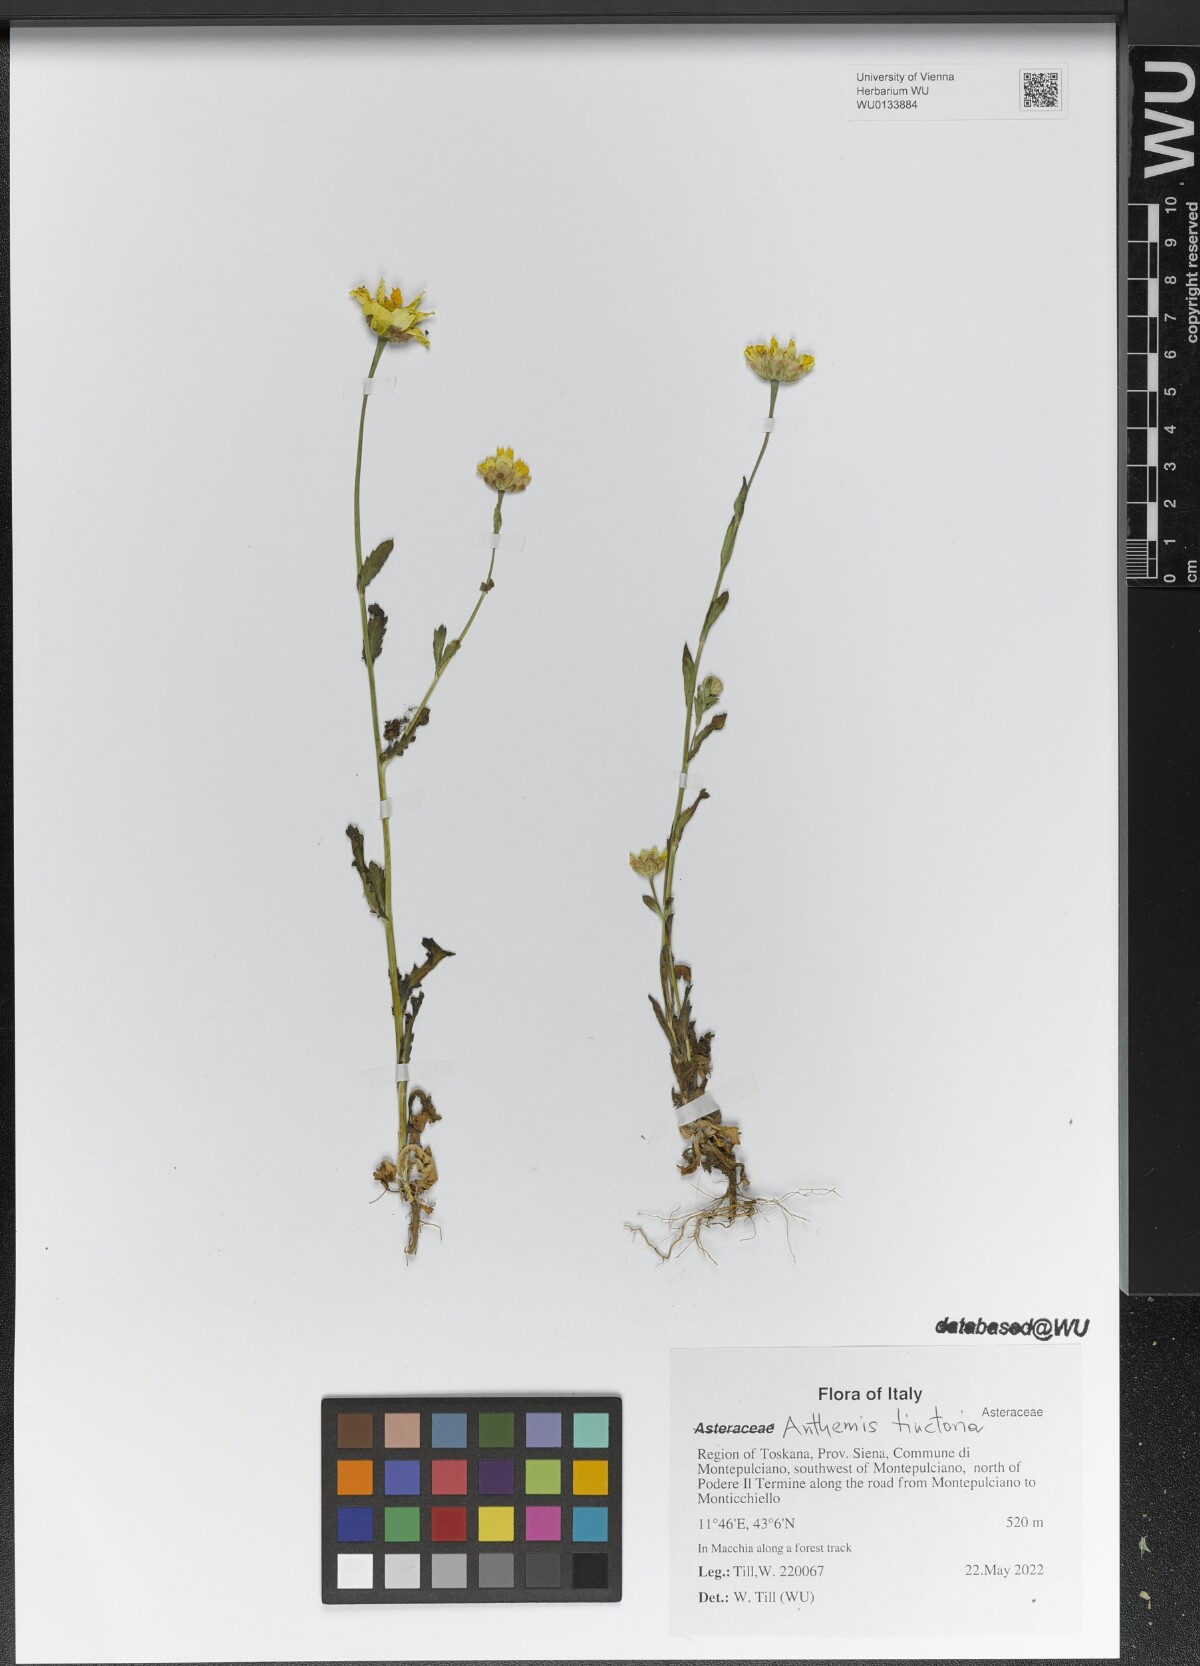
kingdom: Plantae
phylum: Tracheophyta
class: Magnoliopsida
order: Asterales
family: Asteraceae
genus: Cota
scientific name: Cota tinctoria
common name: Golden chamomile
